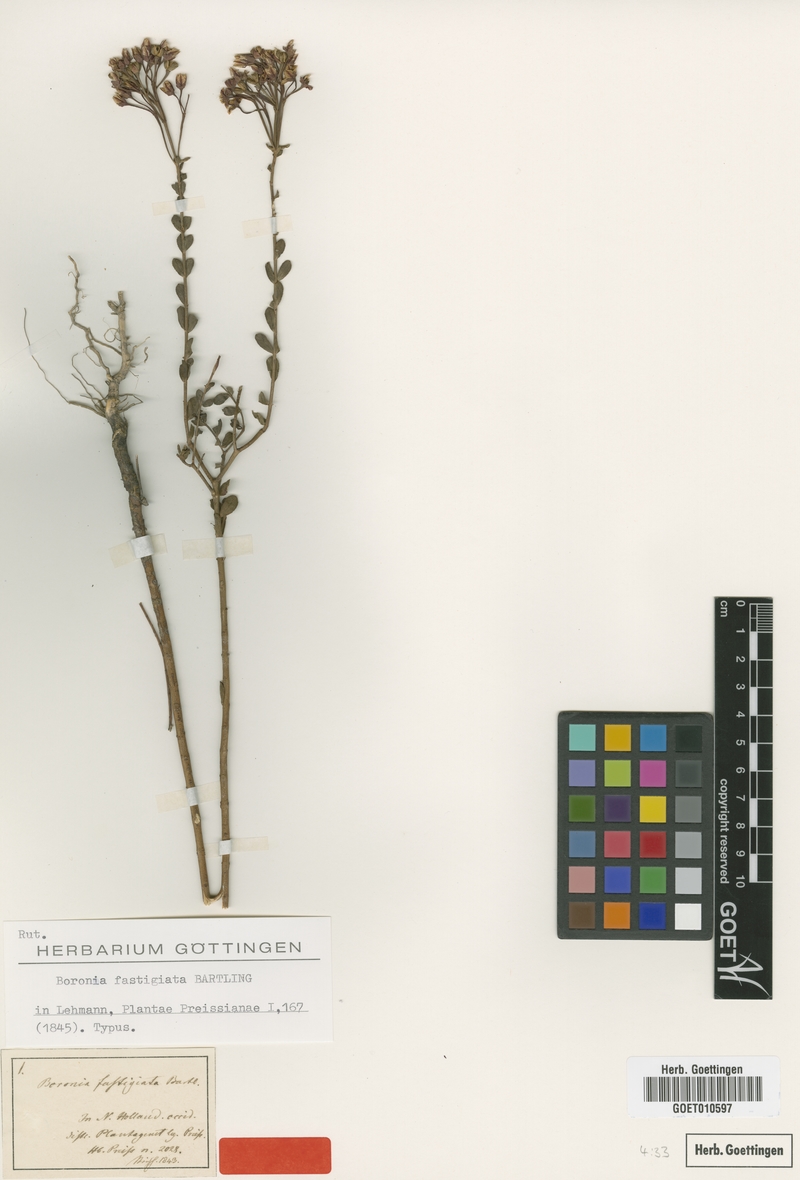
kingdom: Plantae
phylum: Tracheophyta
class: Magnoliopsida
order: Sapindales
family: Rutaceae
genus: Boronia
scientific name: Boronia fastigiata
